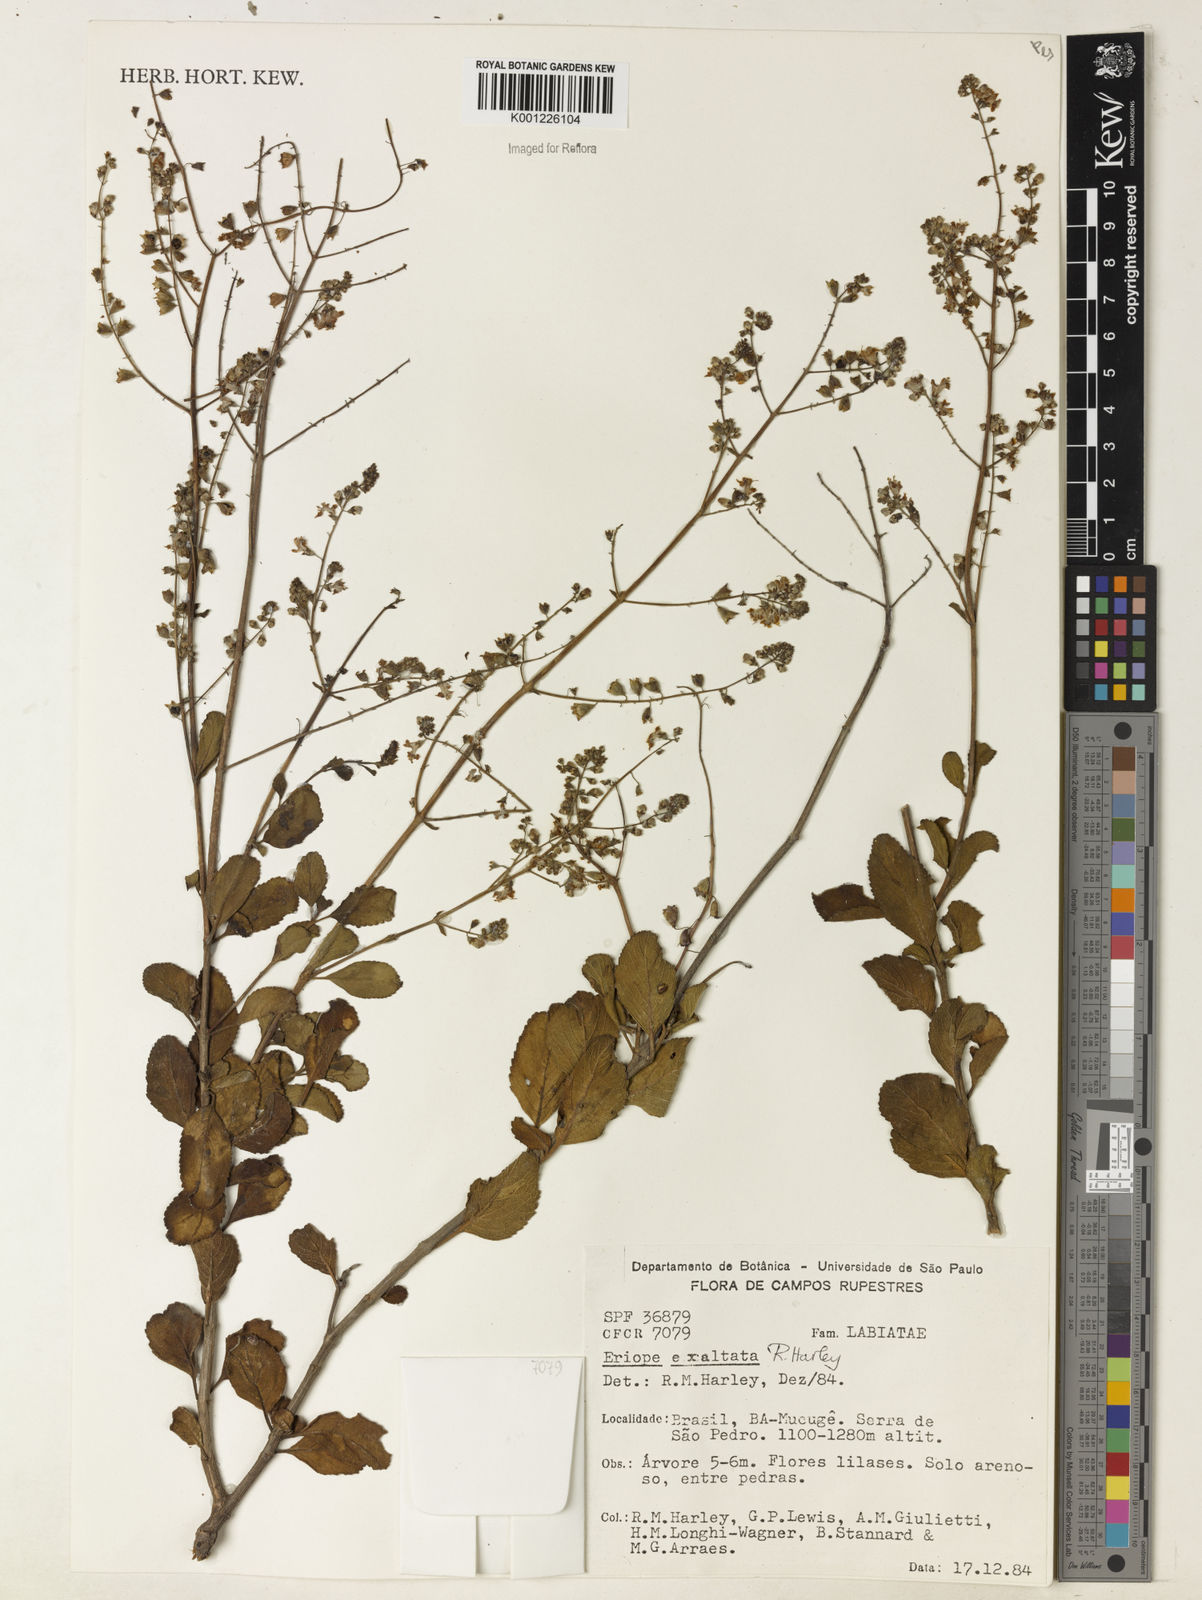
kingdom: Plantae
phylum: Tracheophyta
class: Magnoliopsida
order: Lamiales
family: Lamiaceae
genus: Eriope
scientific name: Eriope exaltata
